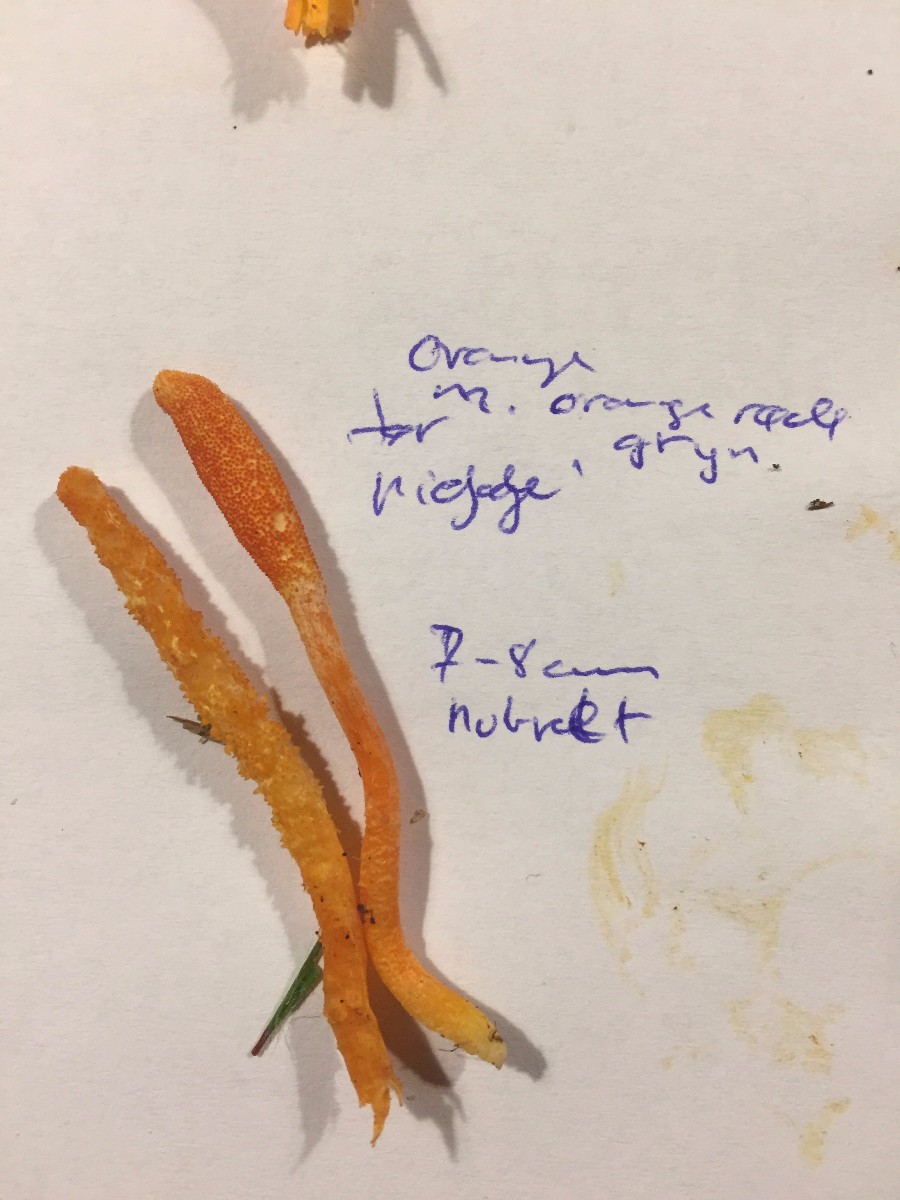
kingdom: Fungi
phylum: Ascomycota
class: Sordariomycetes
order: Hypocreales
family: Cordycipitaceae
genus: Cordyceps
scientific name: Cordyceps militaris
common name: puppe-snyltekølle
